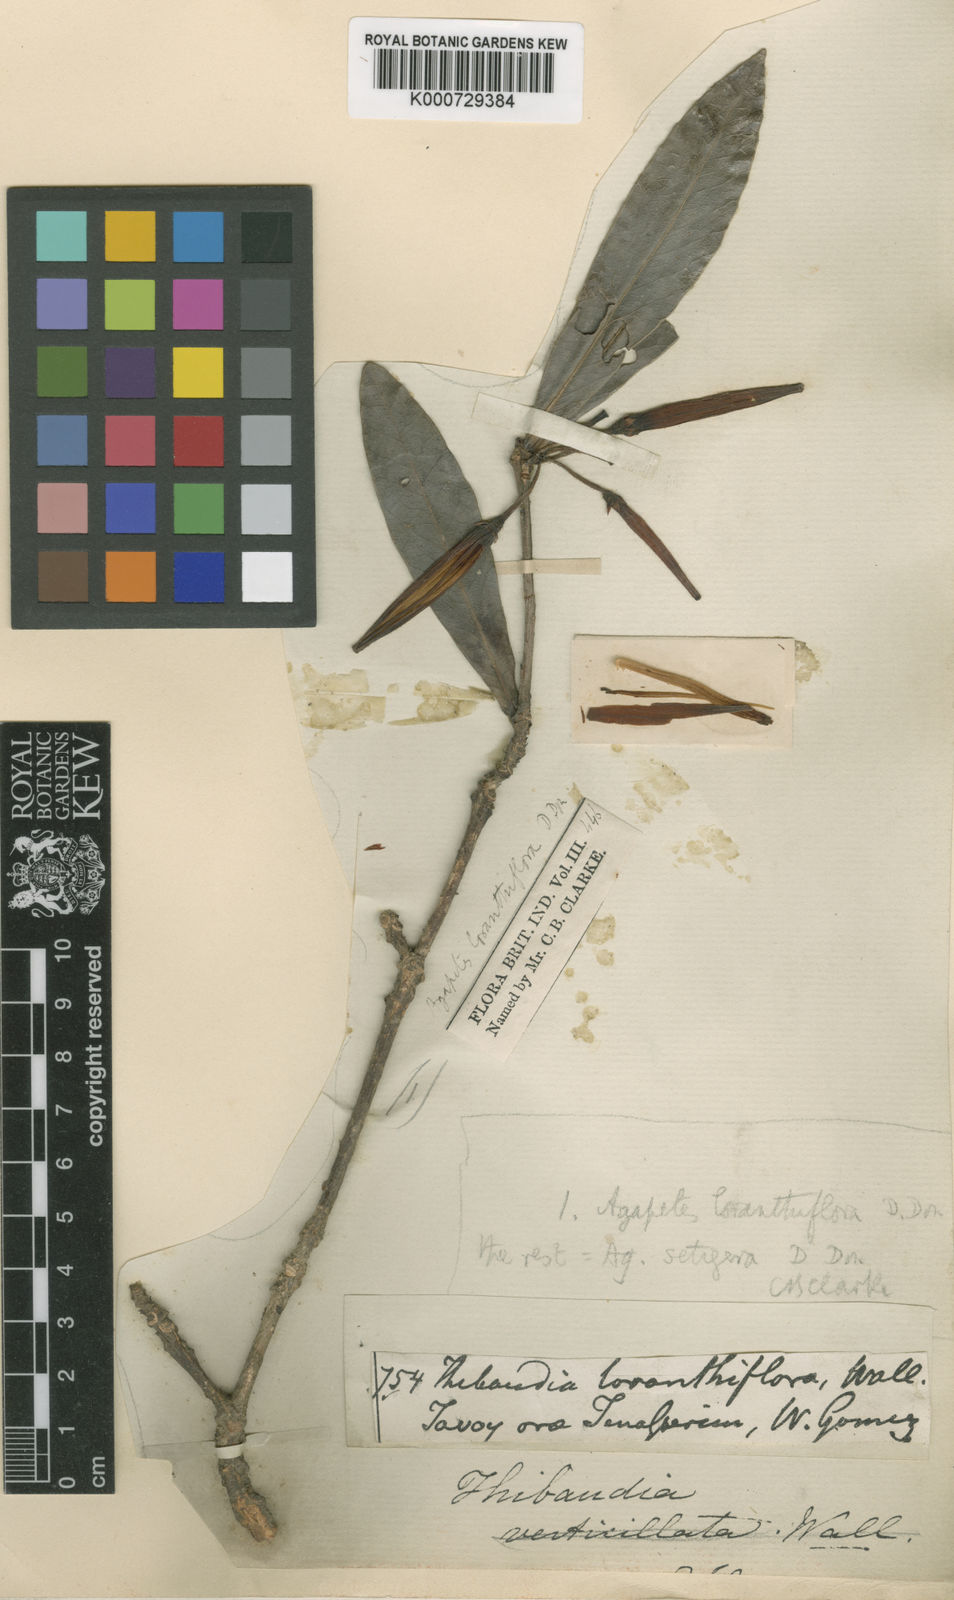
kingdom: Plantae
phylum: Tracheophyta
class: Magnoliopsida
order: Ericales
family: Ericaceae
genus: Agapetes
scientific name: Agapetes variegata
